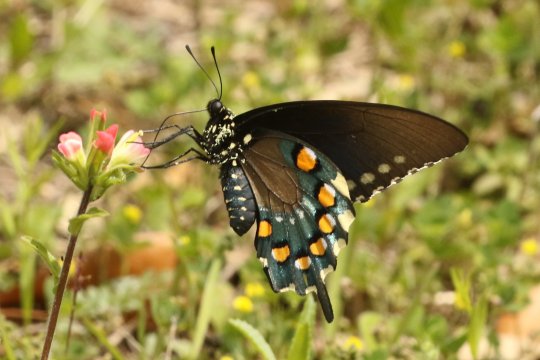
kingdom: Animalia
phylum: Arthropoda
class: Insecta
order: Lepidoptera
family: Papilionidae
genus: Battus
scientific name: Battus philenor
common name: Pipevine Swallowtail
